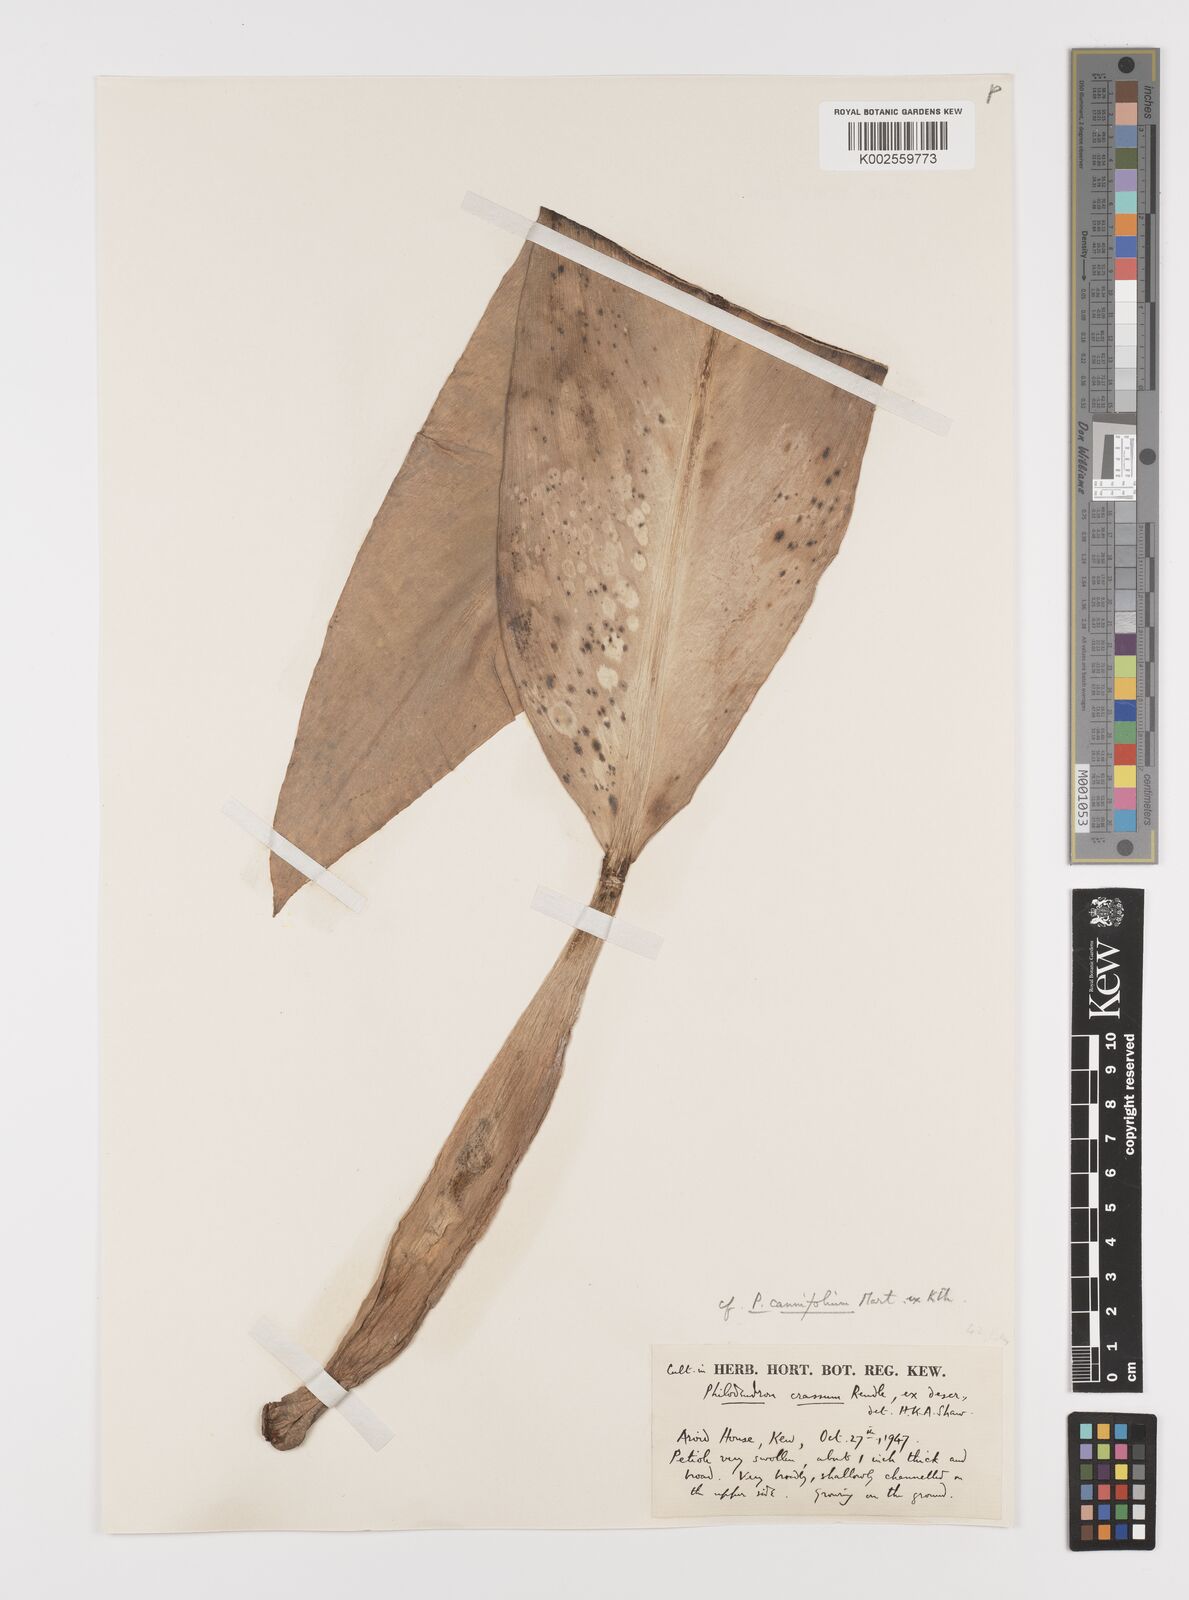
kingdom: Plantae
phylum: Tracheophyta
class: Liliopsida
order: Alismatales
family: Araceae
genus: Philodendron
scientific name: Philodendron martianum
